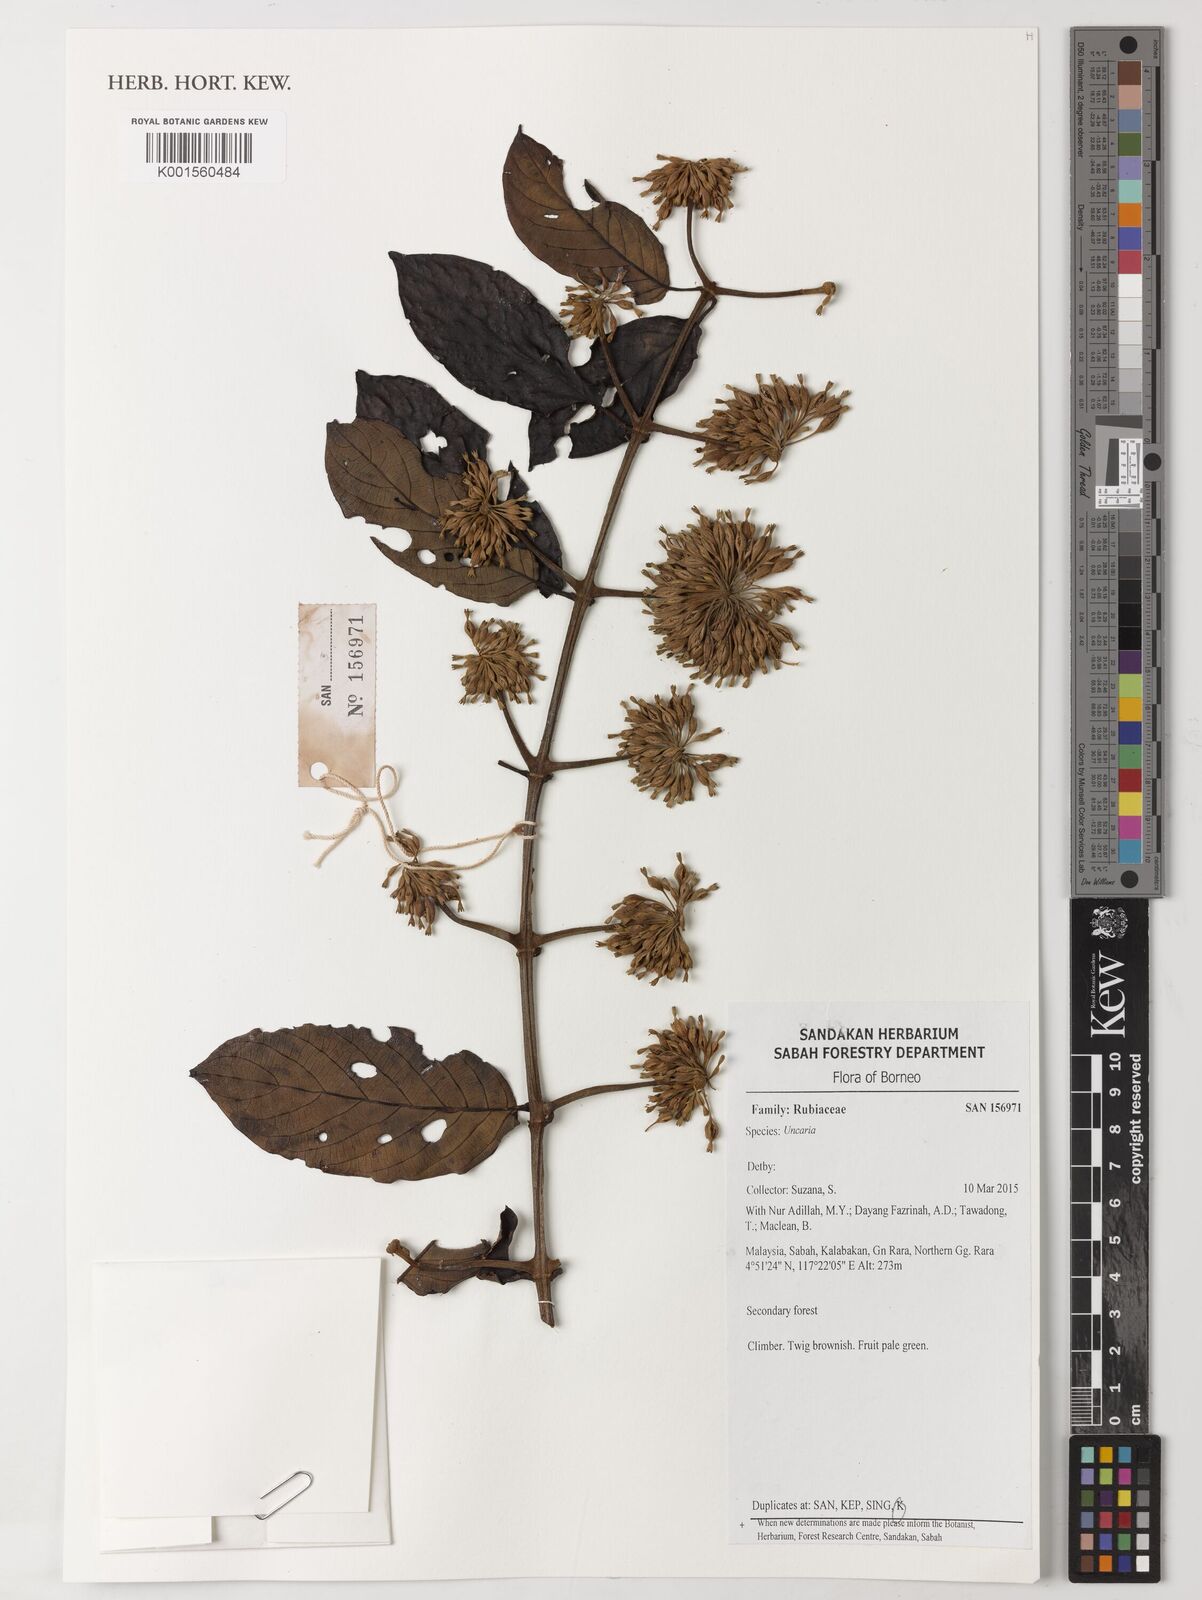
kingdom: Plantae
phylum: Tracheophyta
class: Magnoliopsida
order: Gentianales
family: Rubiaceae
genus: Uncaria
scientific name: Uncaria
